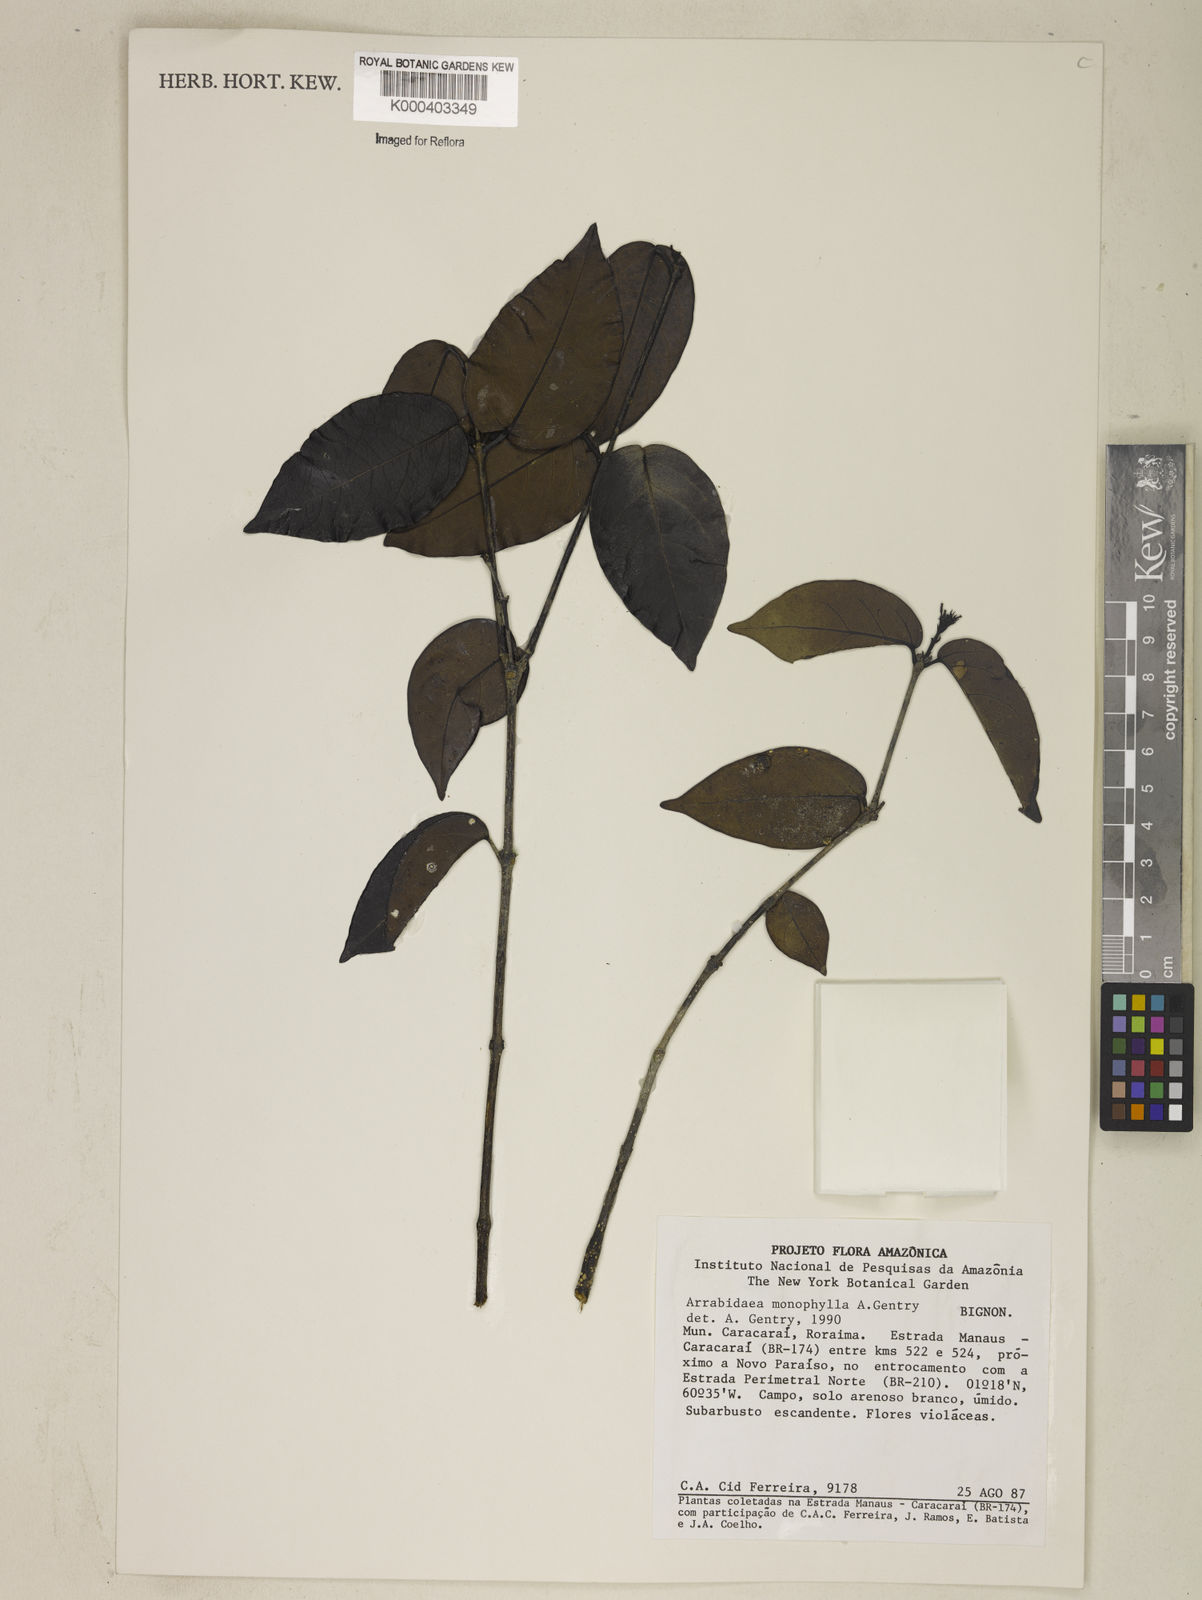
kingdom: Plantae
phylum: Tracheophyta
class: Magnoliopsida
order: Lamiales
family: Bignoniaceae
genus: Cuspidaria
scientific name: Cuspidaria monophylla
